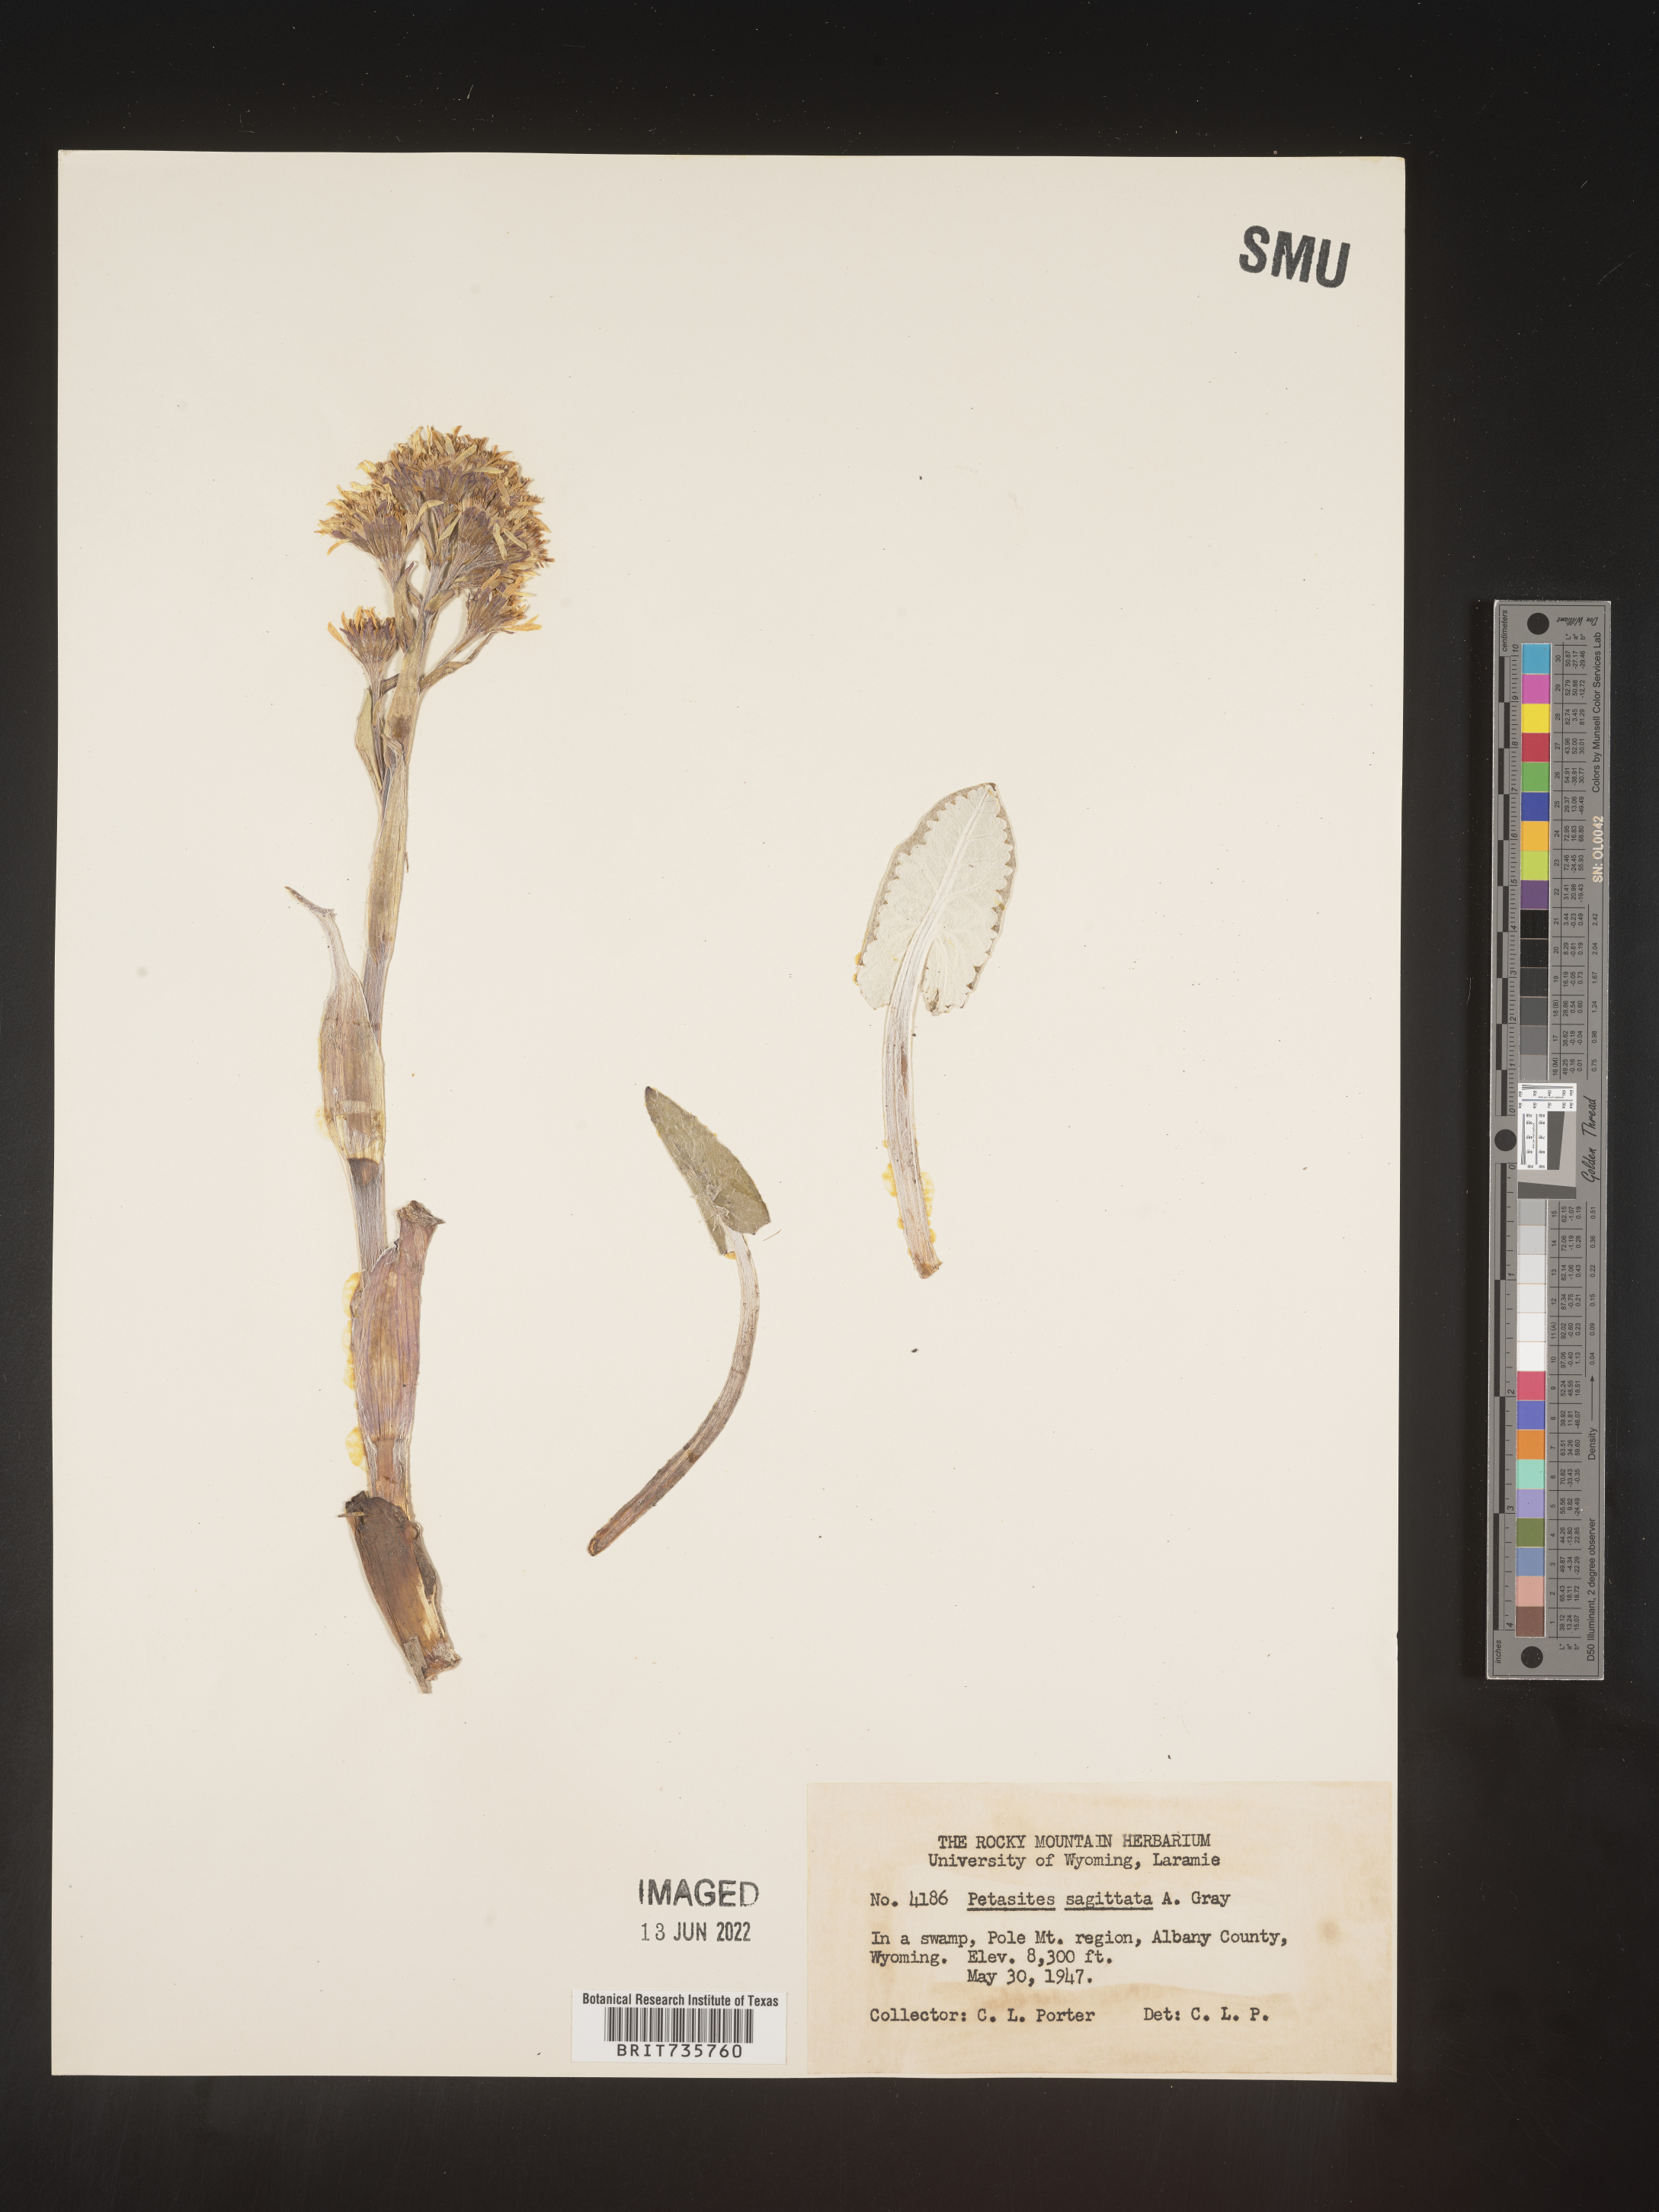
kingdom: Plantae
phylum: Tracheophyta
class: Magnoliopsida
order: Asterales
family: Asteraceae
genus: Petasites
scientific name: Petasites frigidus
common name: Arctic butterbur
